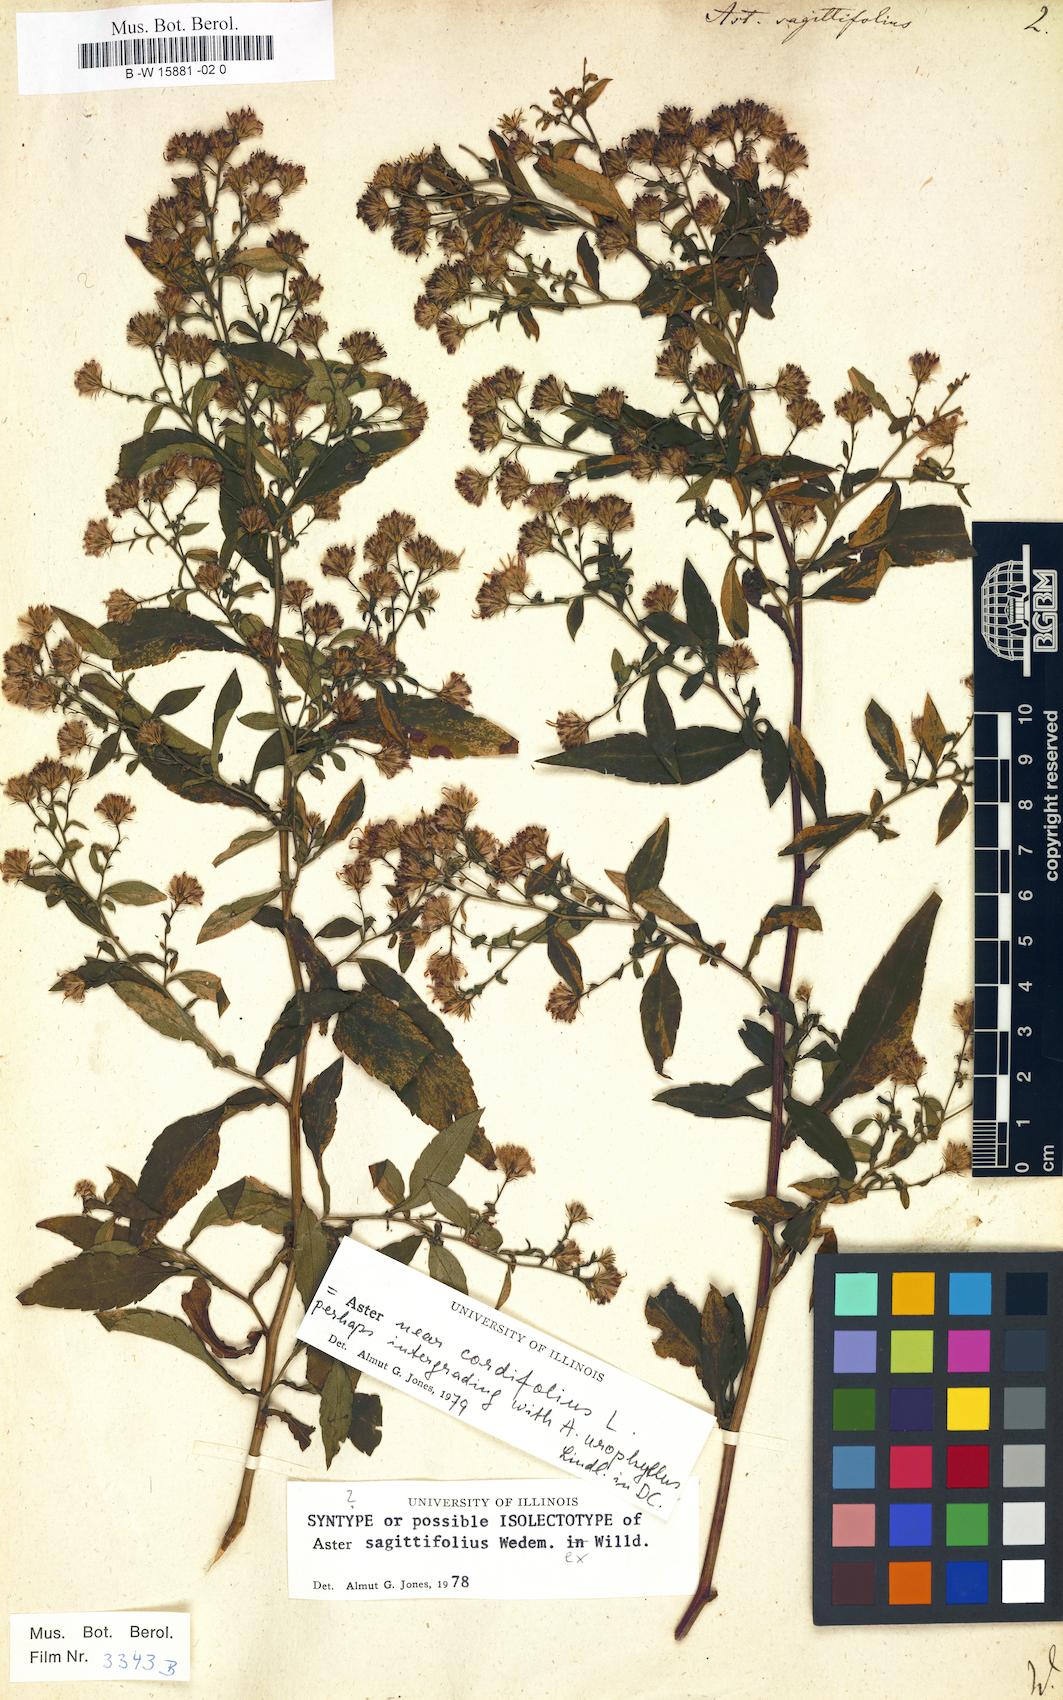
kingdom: Plantae
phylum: Tracheophyta
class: Magnoliopsida
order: Asterales
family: Asteraceae
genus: Symphyotrichum
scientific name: Symphyotrichum cordifolium
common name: Beeweed
